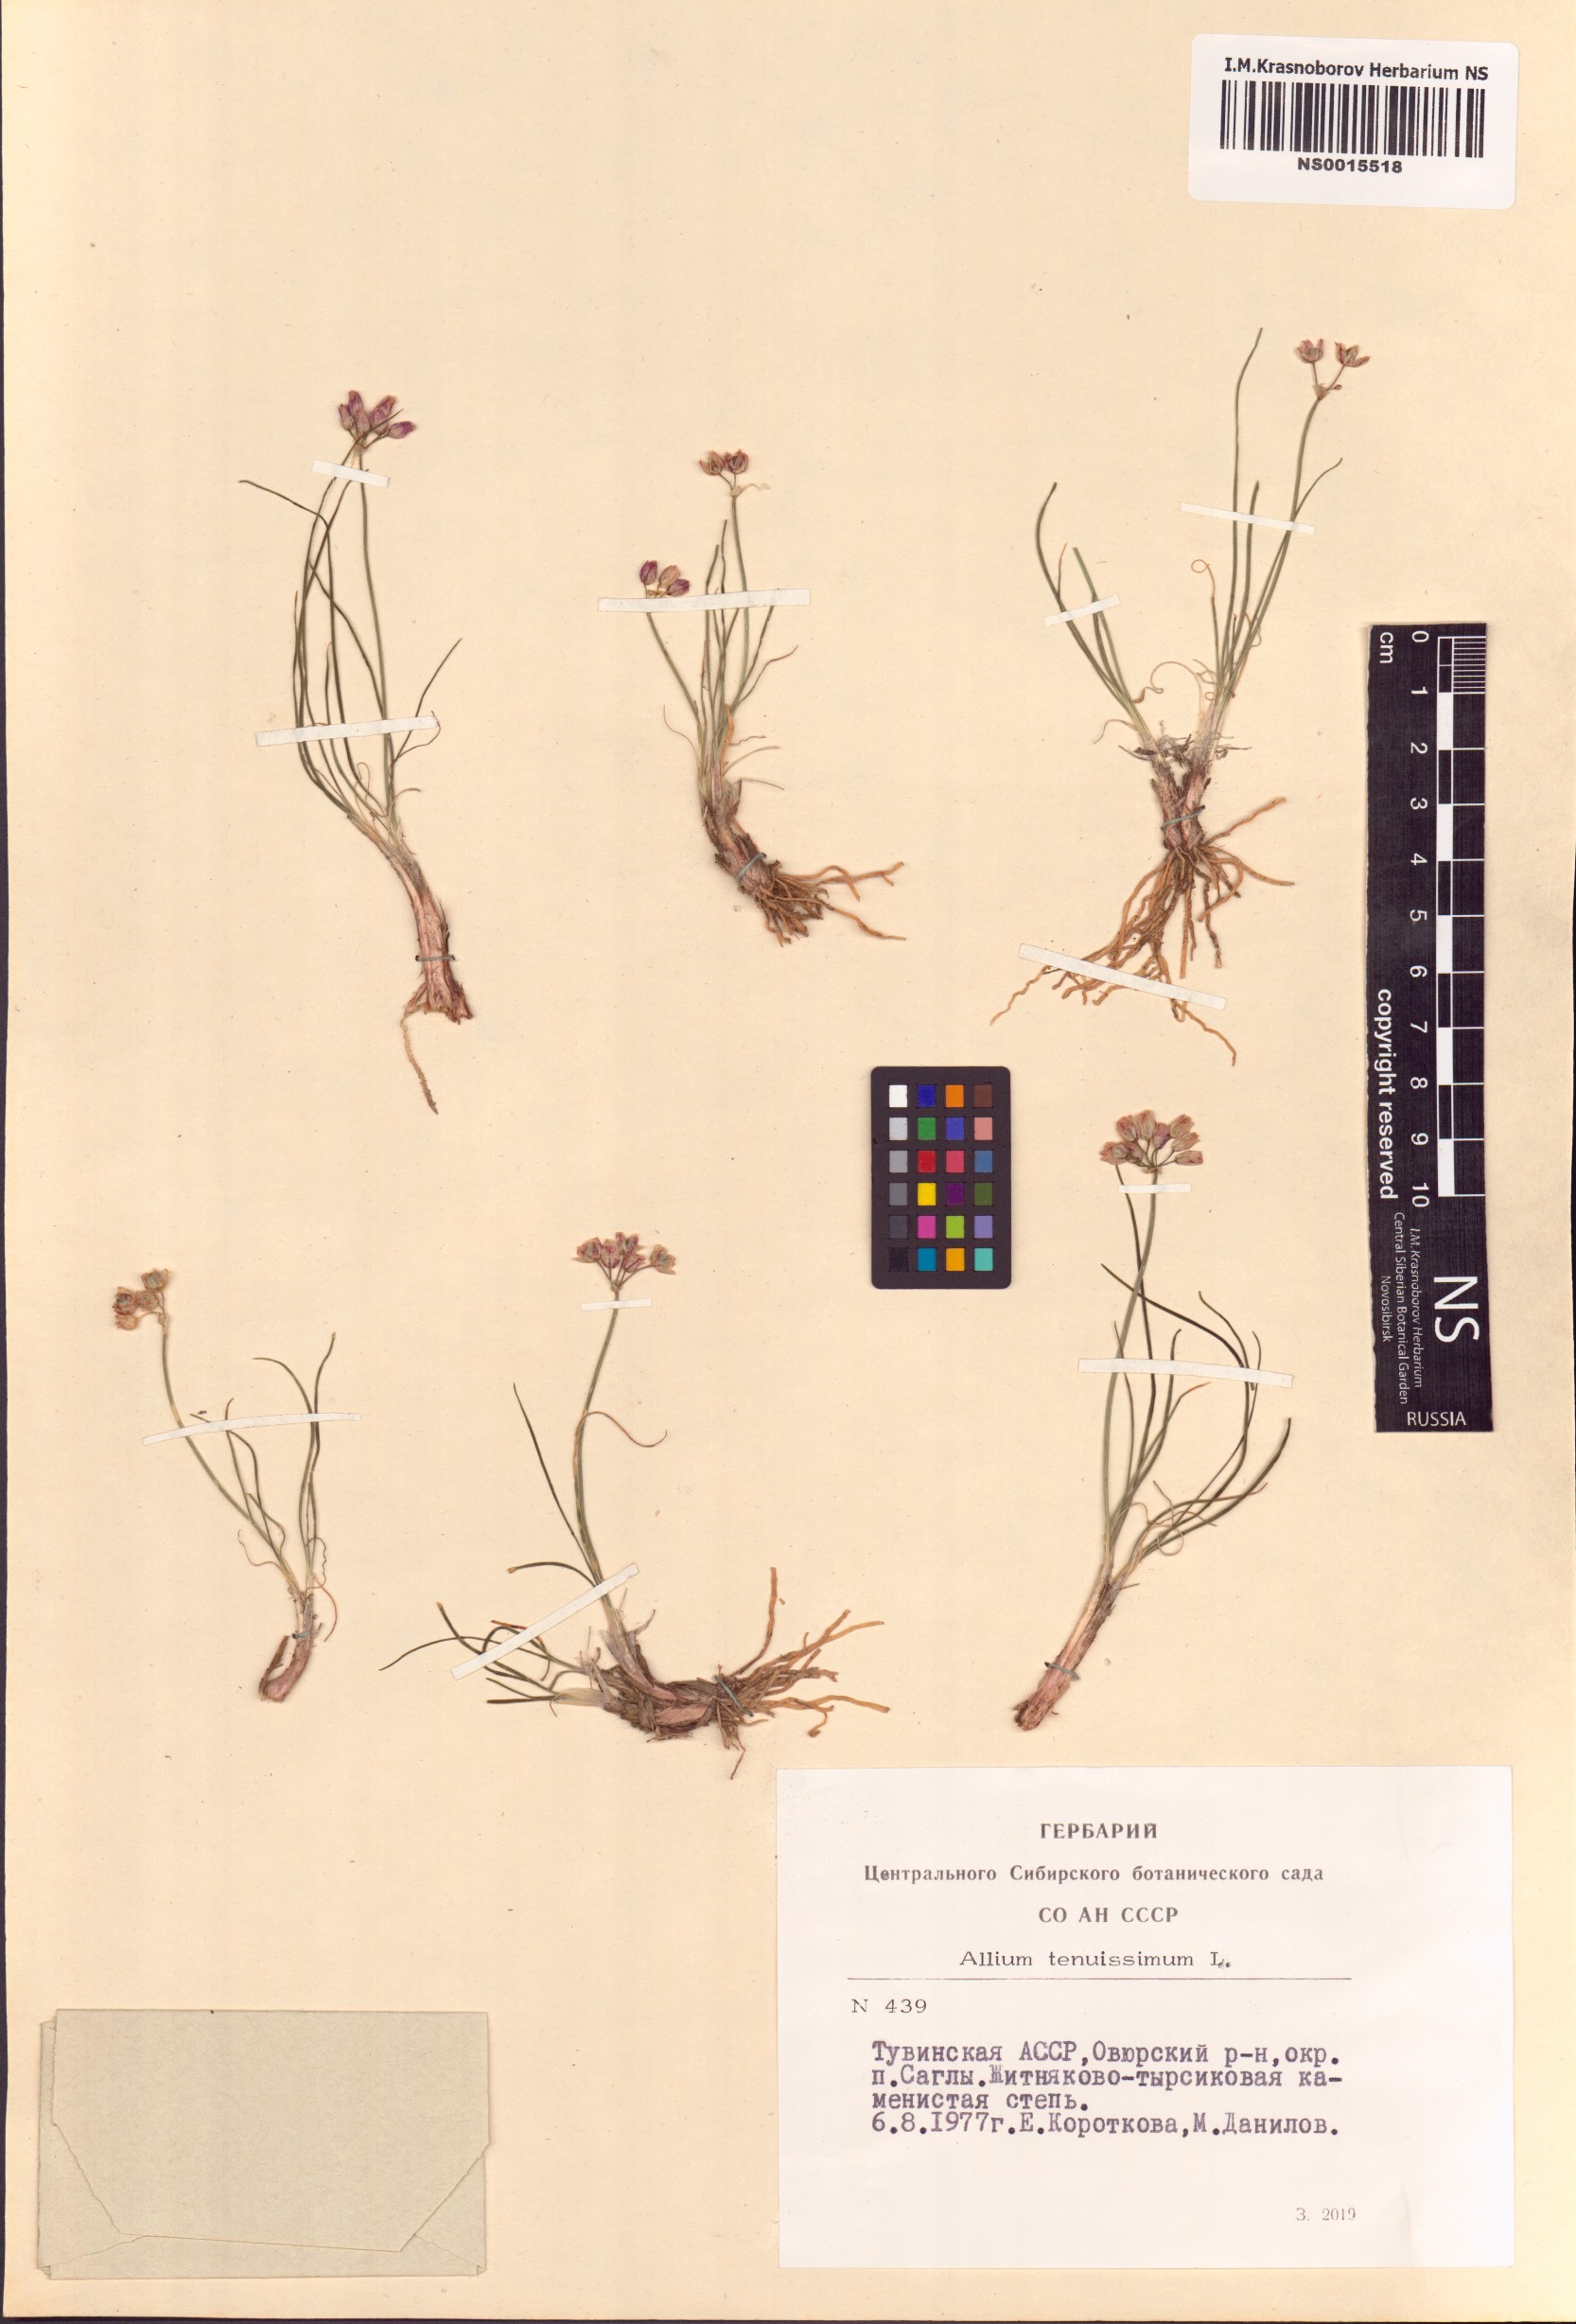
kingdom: Plantae
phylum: Tracheophyta
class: Liliopsida
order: Asparagales
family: Amaryllidaceae
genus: Allium
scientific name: Allium tenuissimum
